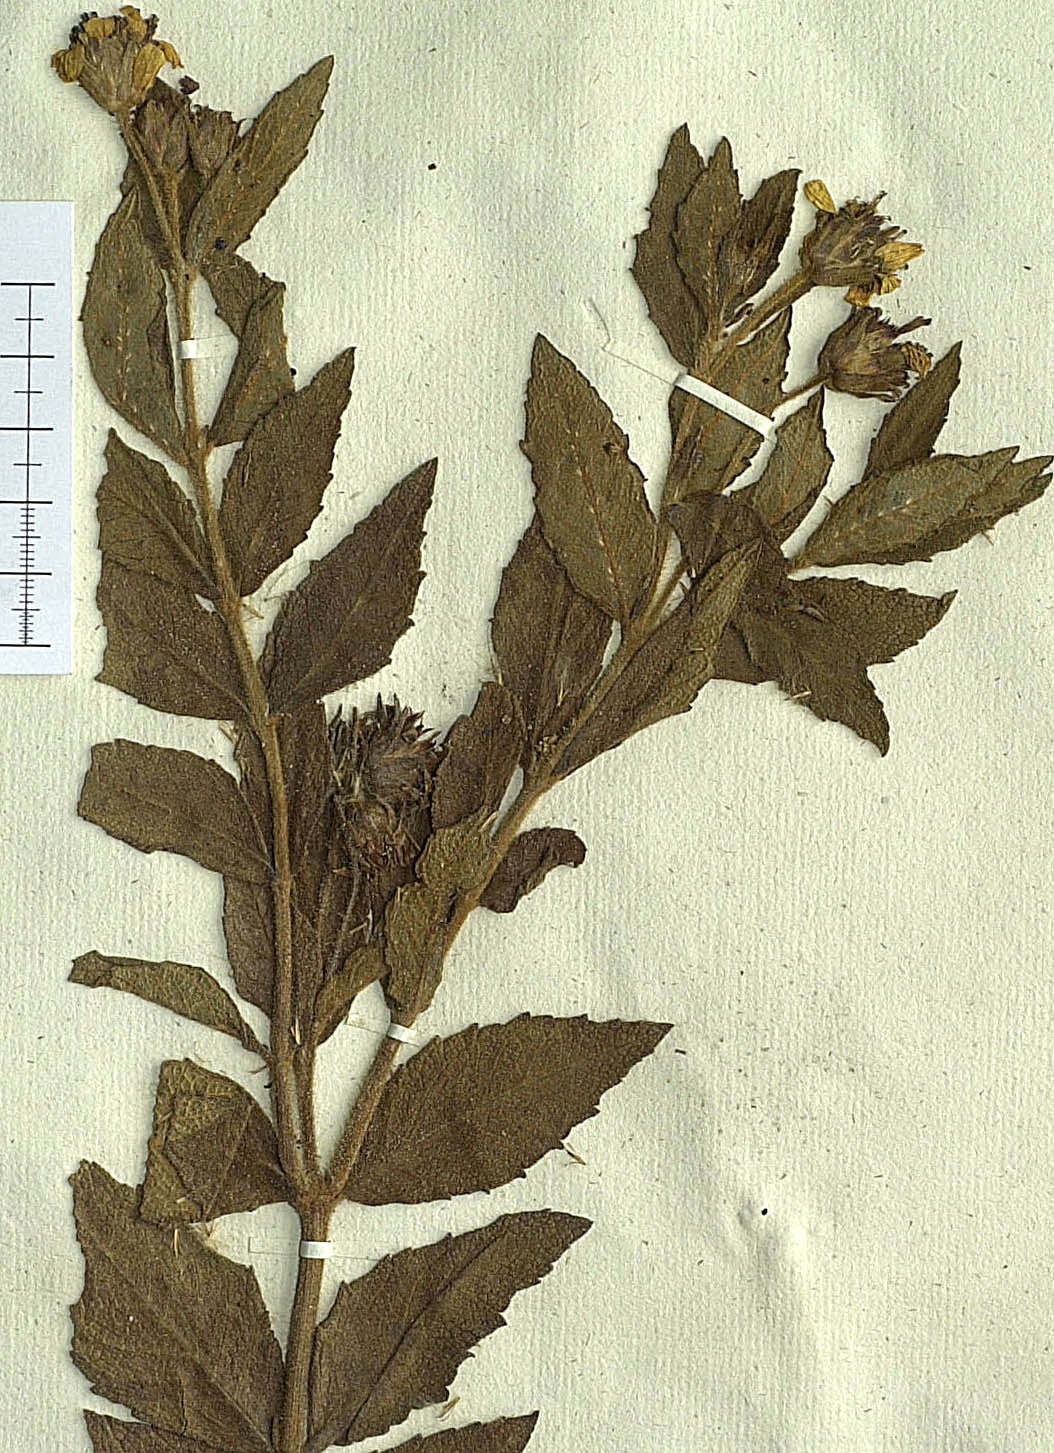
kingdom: Plantae
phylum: Tracheophyta
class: Magnoliopsida
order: Asterales
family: Asteraceae
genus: Wedelia
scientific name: Wedelia frioana
